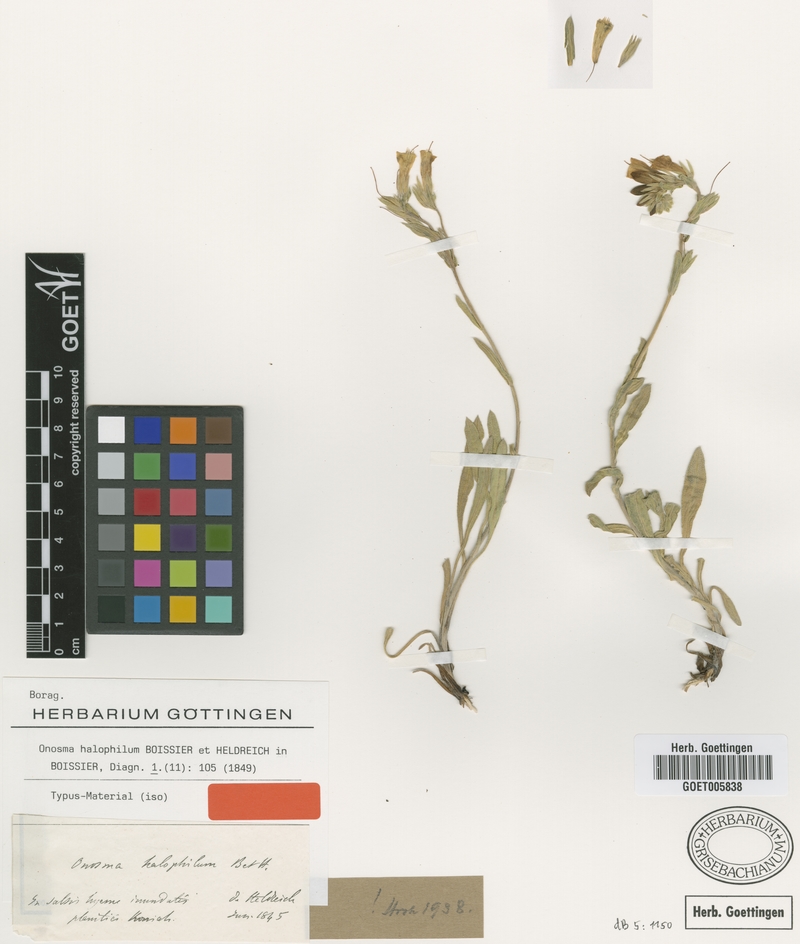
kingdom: Plantae
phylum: Tracheophyta
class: Magnoliopsida
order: Boraginales
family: Boraginaceae
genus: Onosma
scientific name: Onosma halophila
